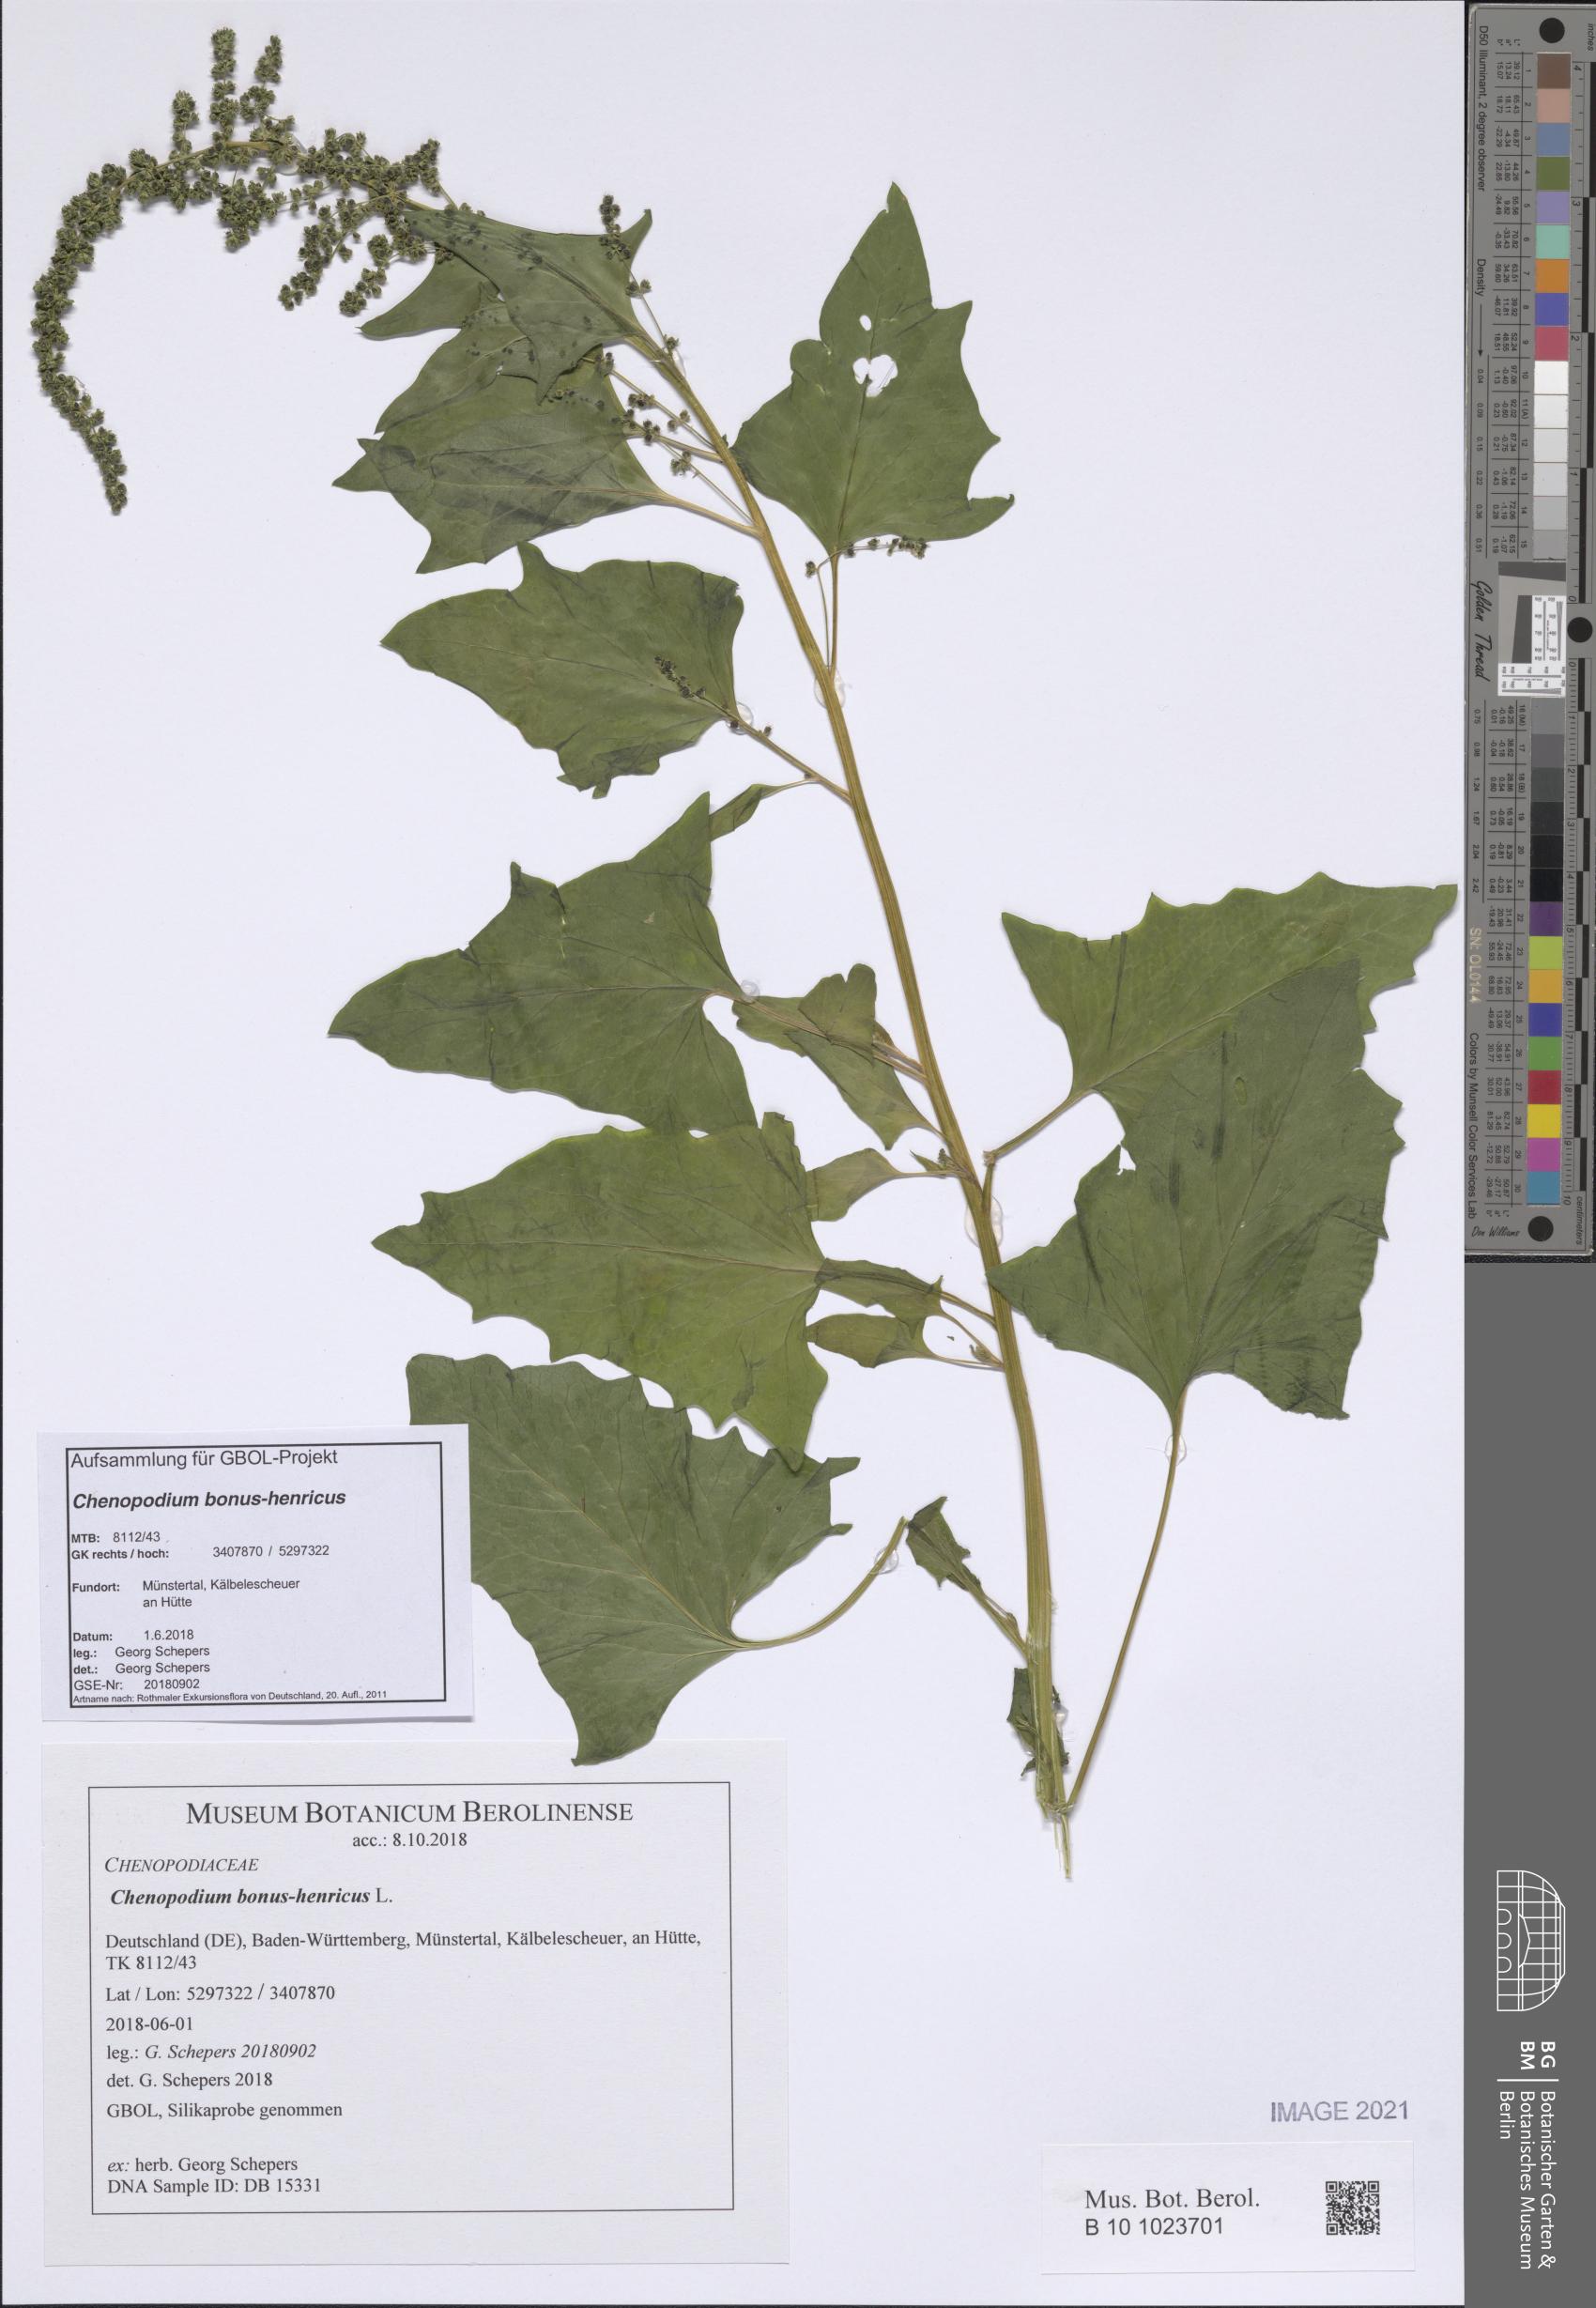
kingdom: Plantae
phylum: Tracheophyta
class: Magnoliopsida
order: Caryophyllales
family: Amaranthaceae
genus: Blitum
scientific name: Blitum bonus-henricus
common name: Good king henry
